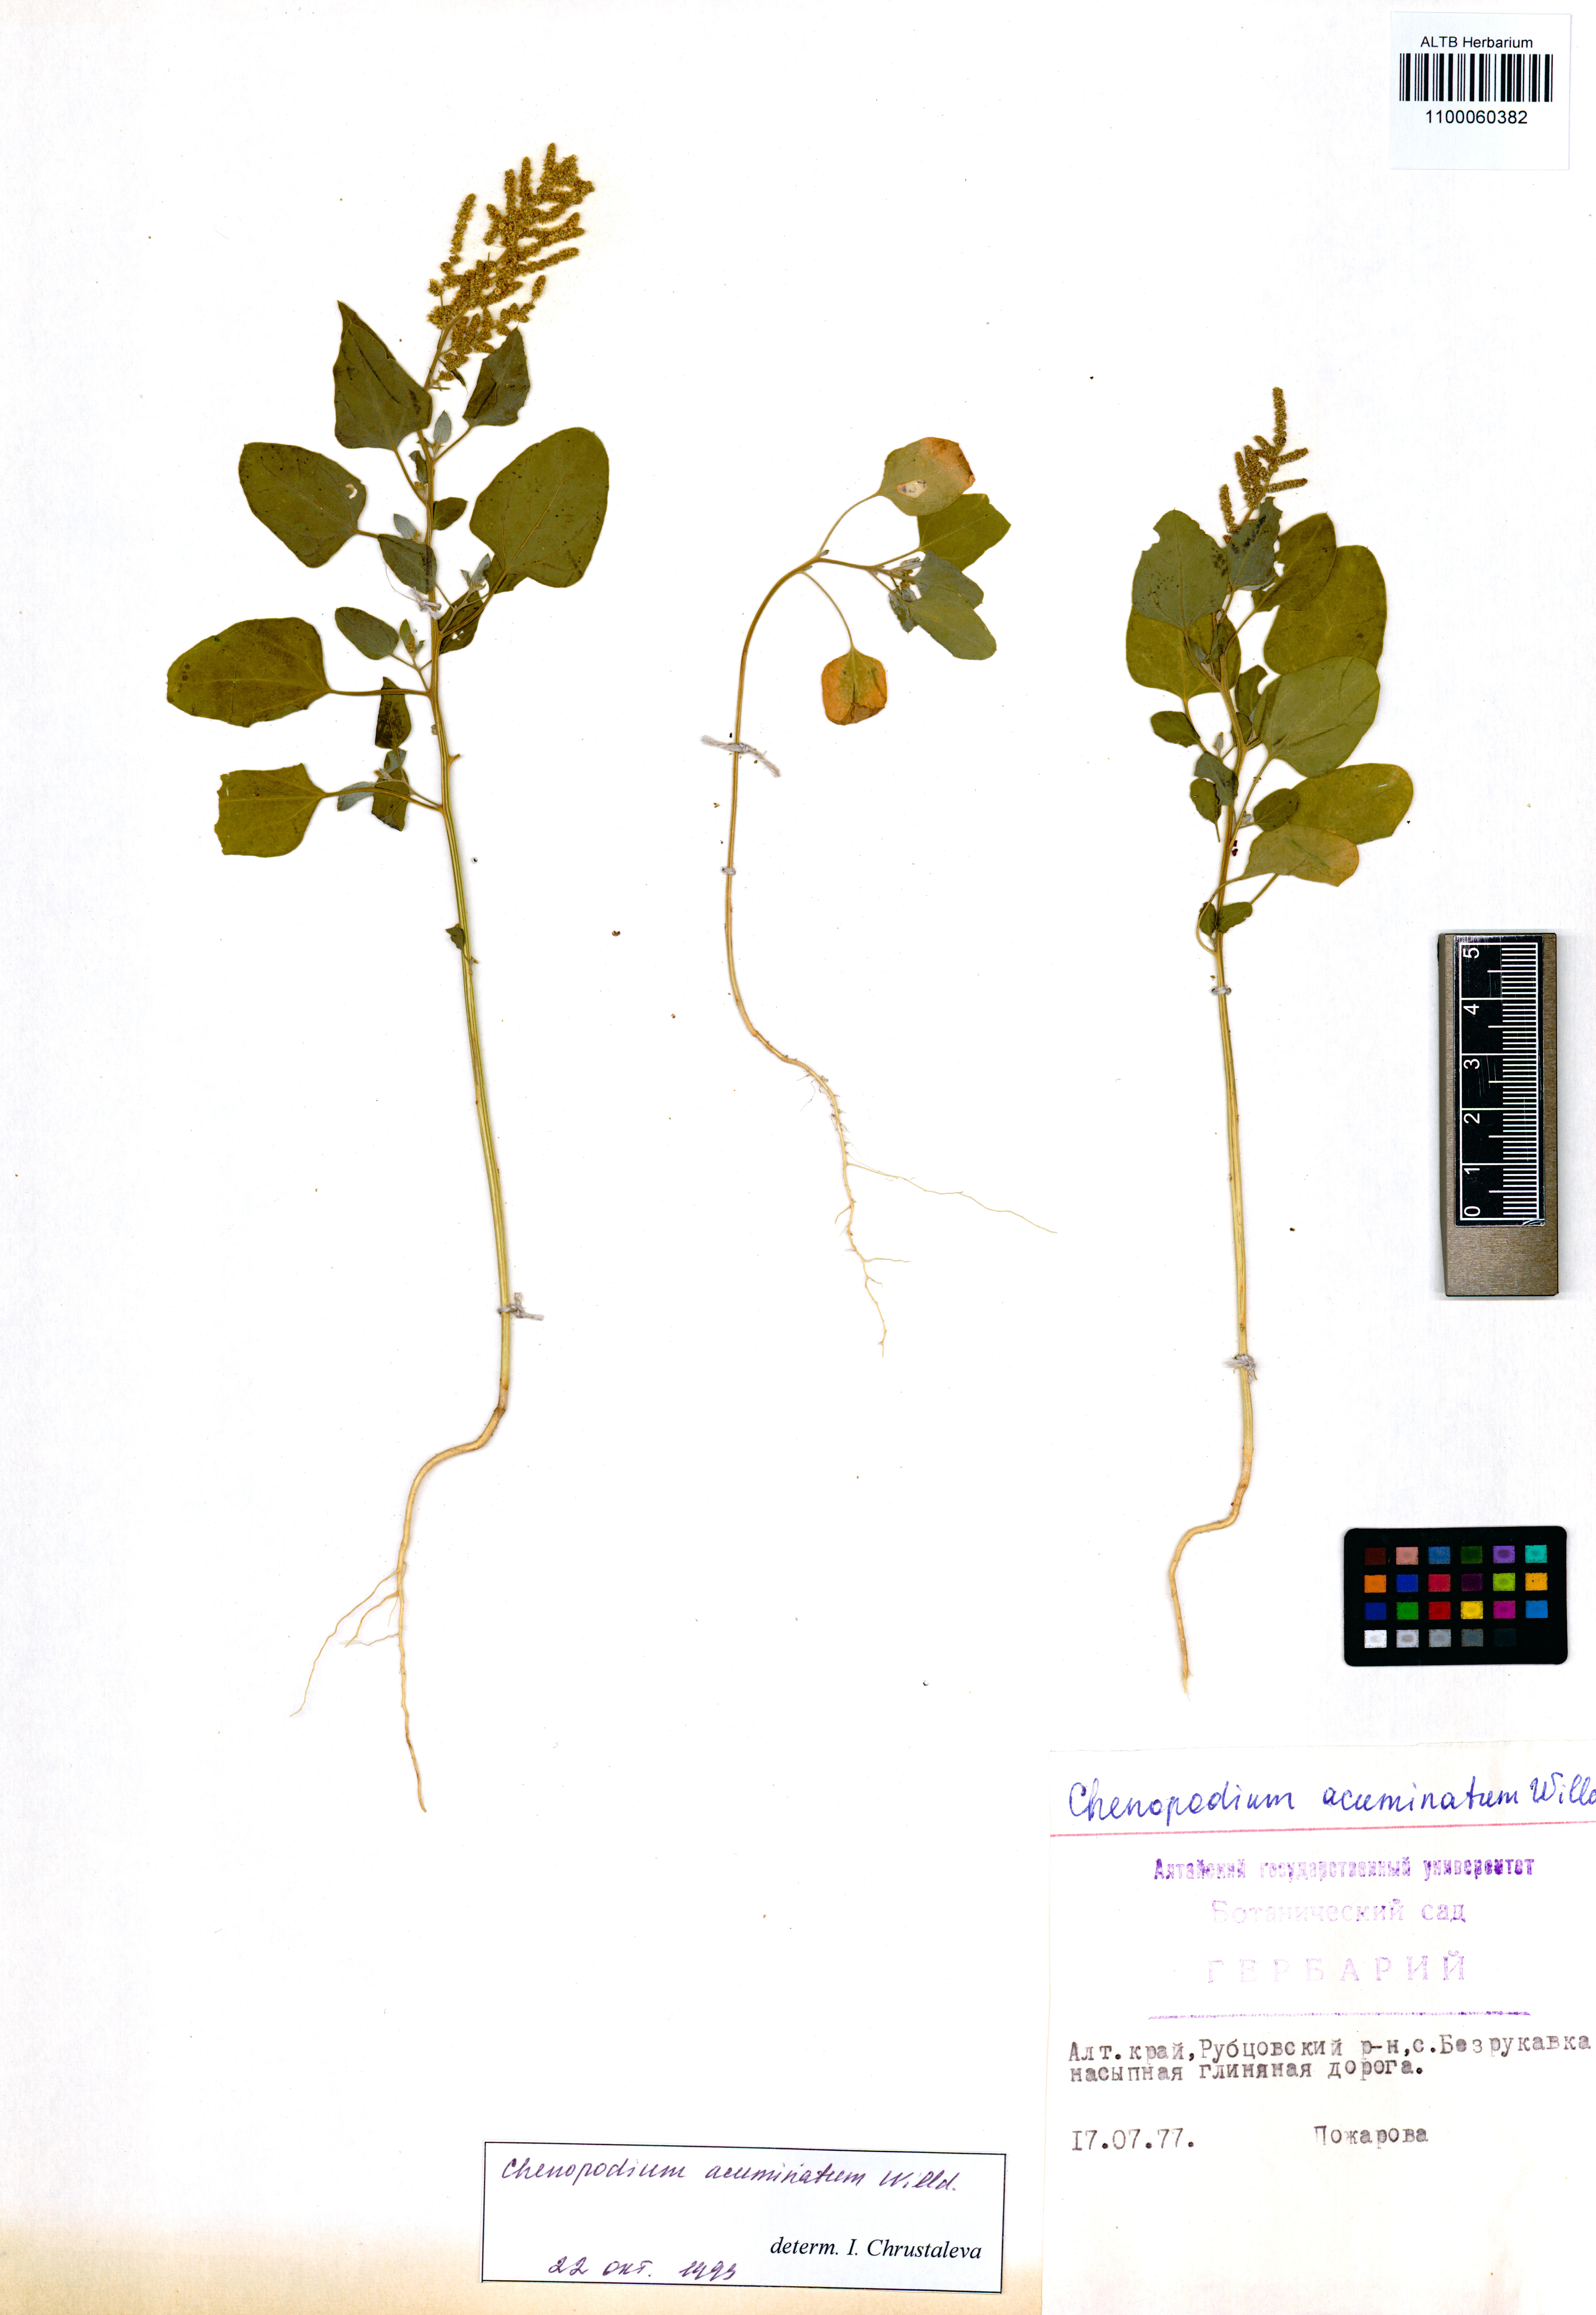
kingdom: Plantae
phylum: Tracheophyta
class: Magnoliopsida
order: Caryophyllales
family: Amaranthaceae
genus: Chenopodium
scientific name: Chenopodium acuminatum
